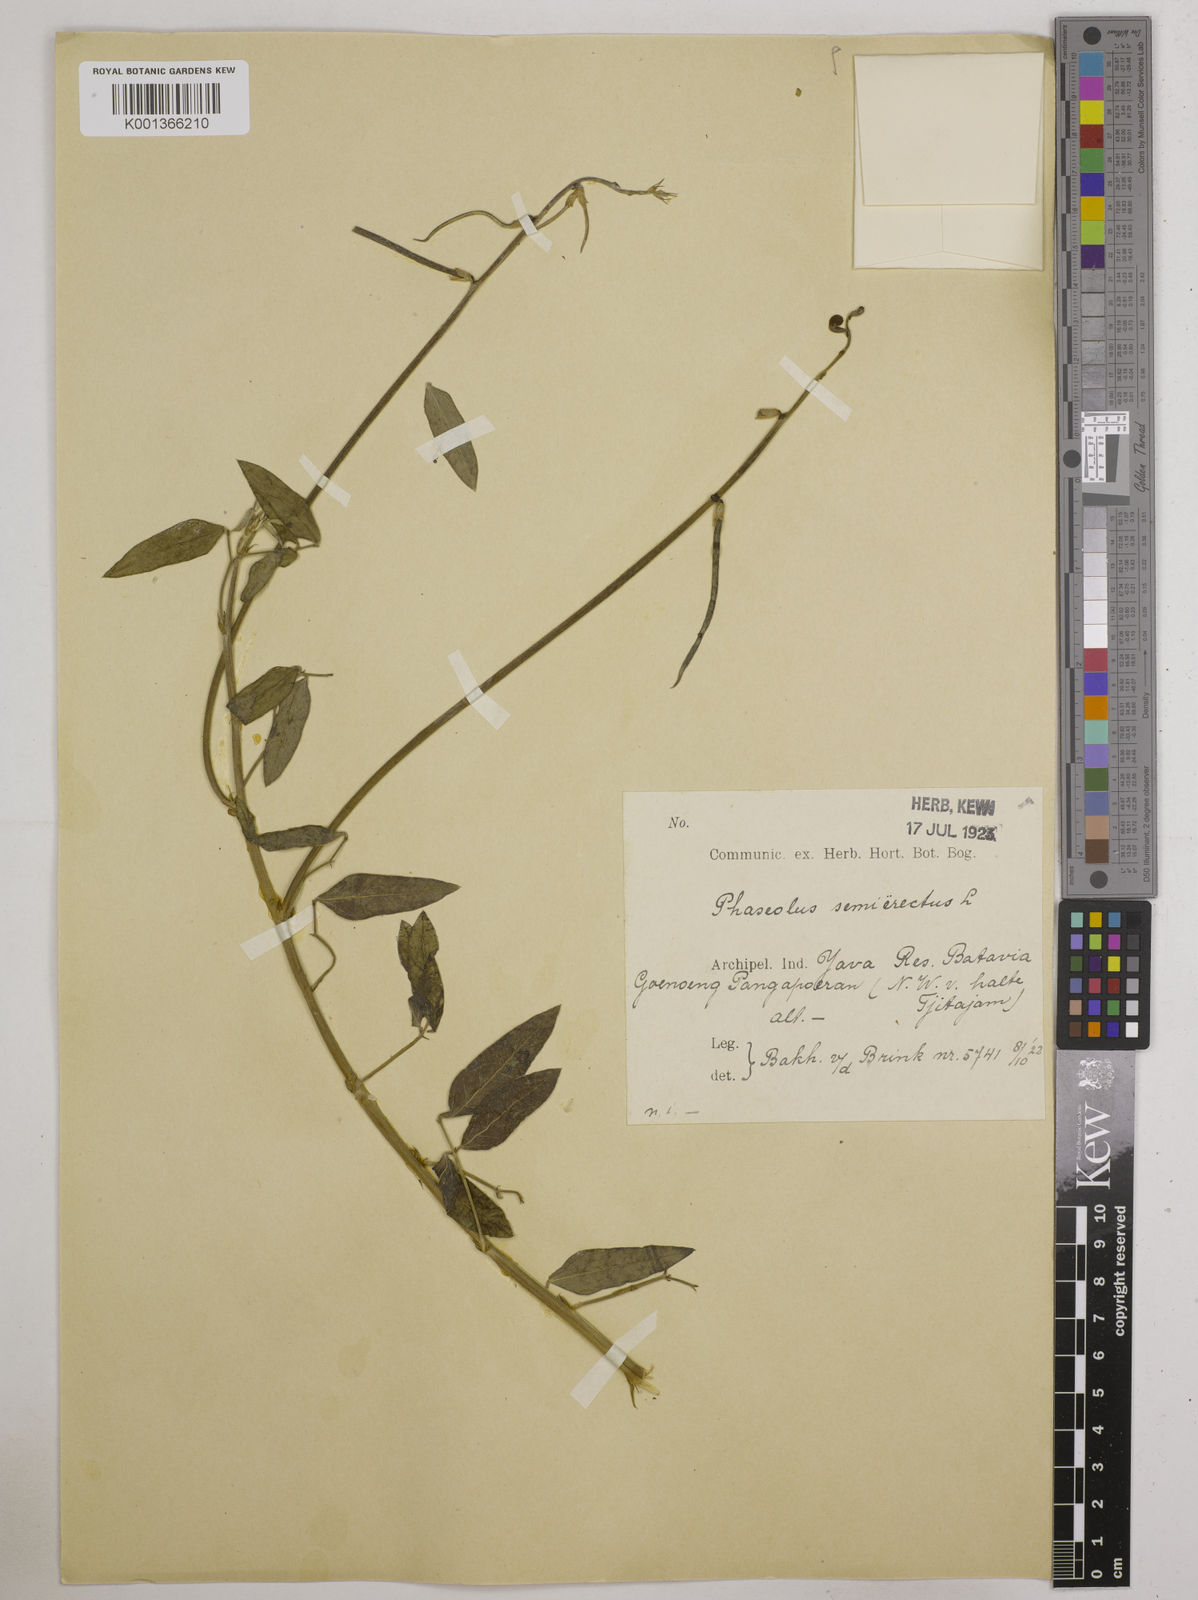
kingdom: Plantae
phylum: Tracheophyta
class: Magnoliopsida
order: Fabales
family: Fabaceae
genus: Macroptilium
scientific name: Macroptilium lathyroides
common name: Wild bushbean
